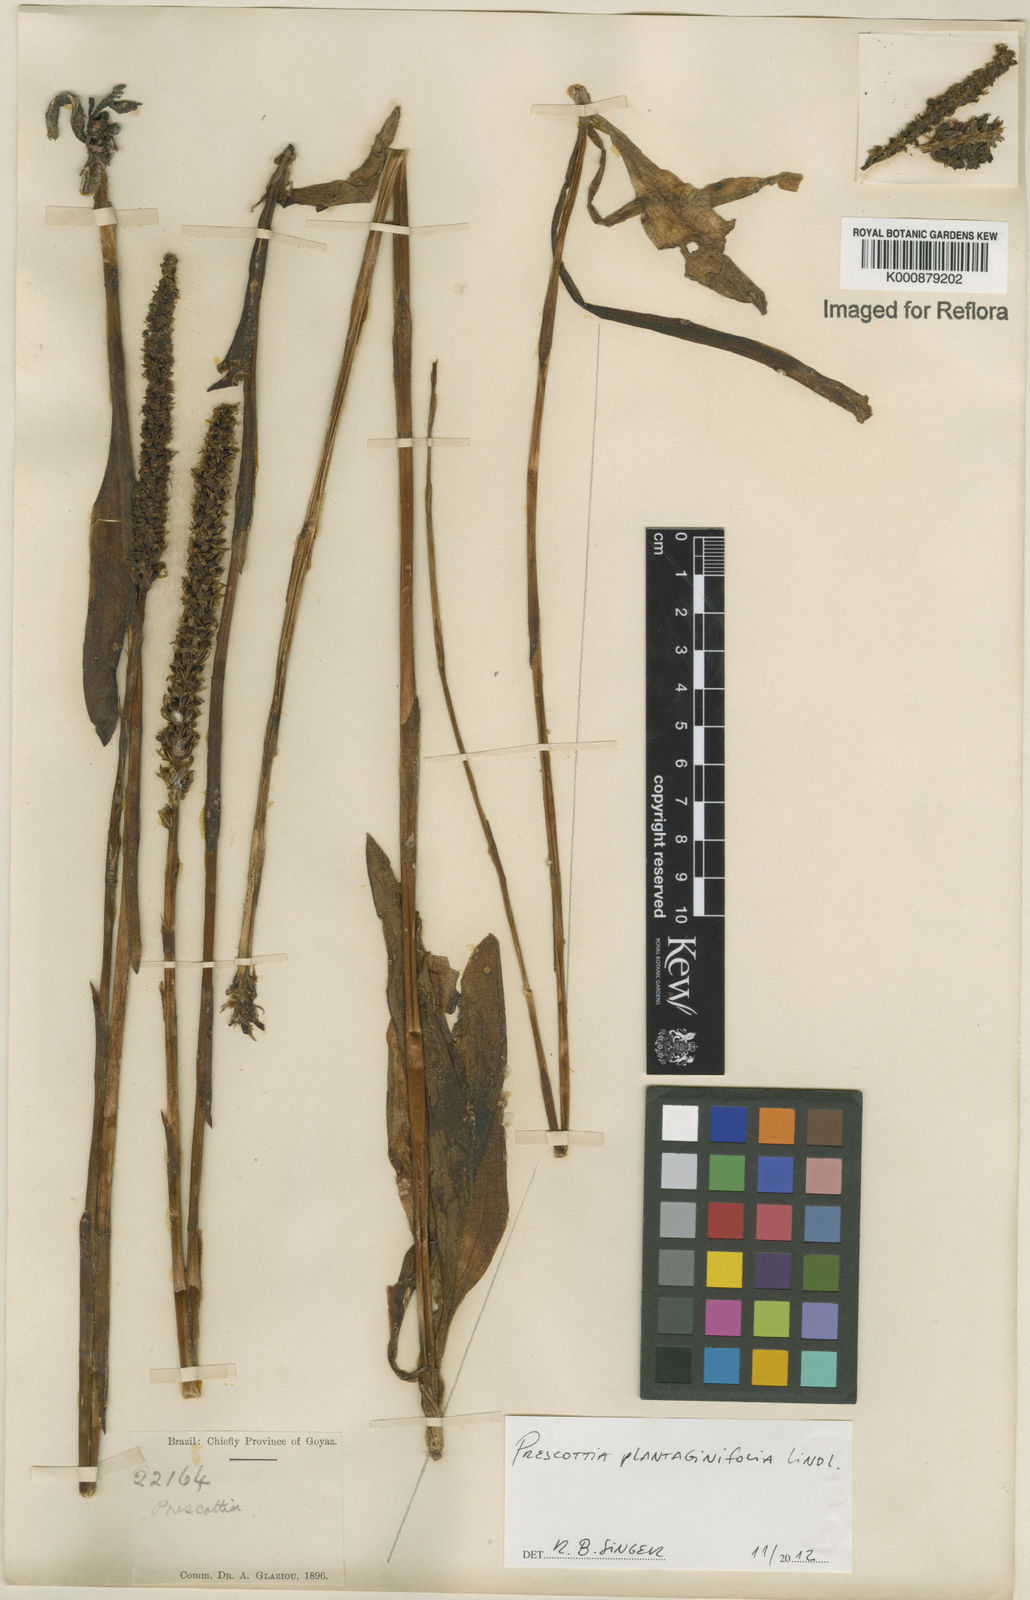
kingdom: Plantae
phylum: Tracheophyta
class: Liliopsida
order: Asparagales
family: Orchidaceae
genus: Prescottia
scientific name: Prescottia plantaginifolia
